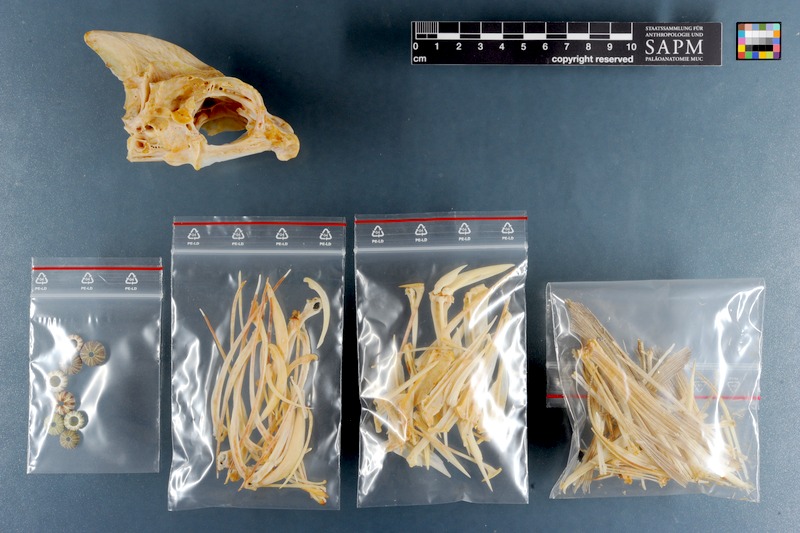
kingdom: Animalia
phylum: Chordata
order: Perciformes
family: Sparidae
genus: Diplodus
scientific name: Diplodus hottentotus
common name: Zebra
